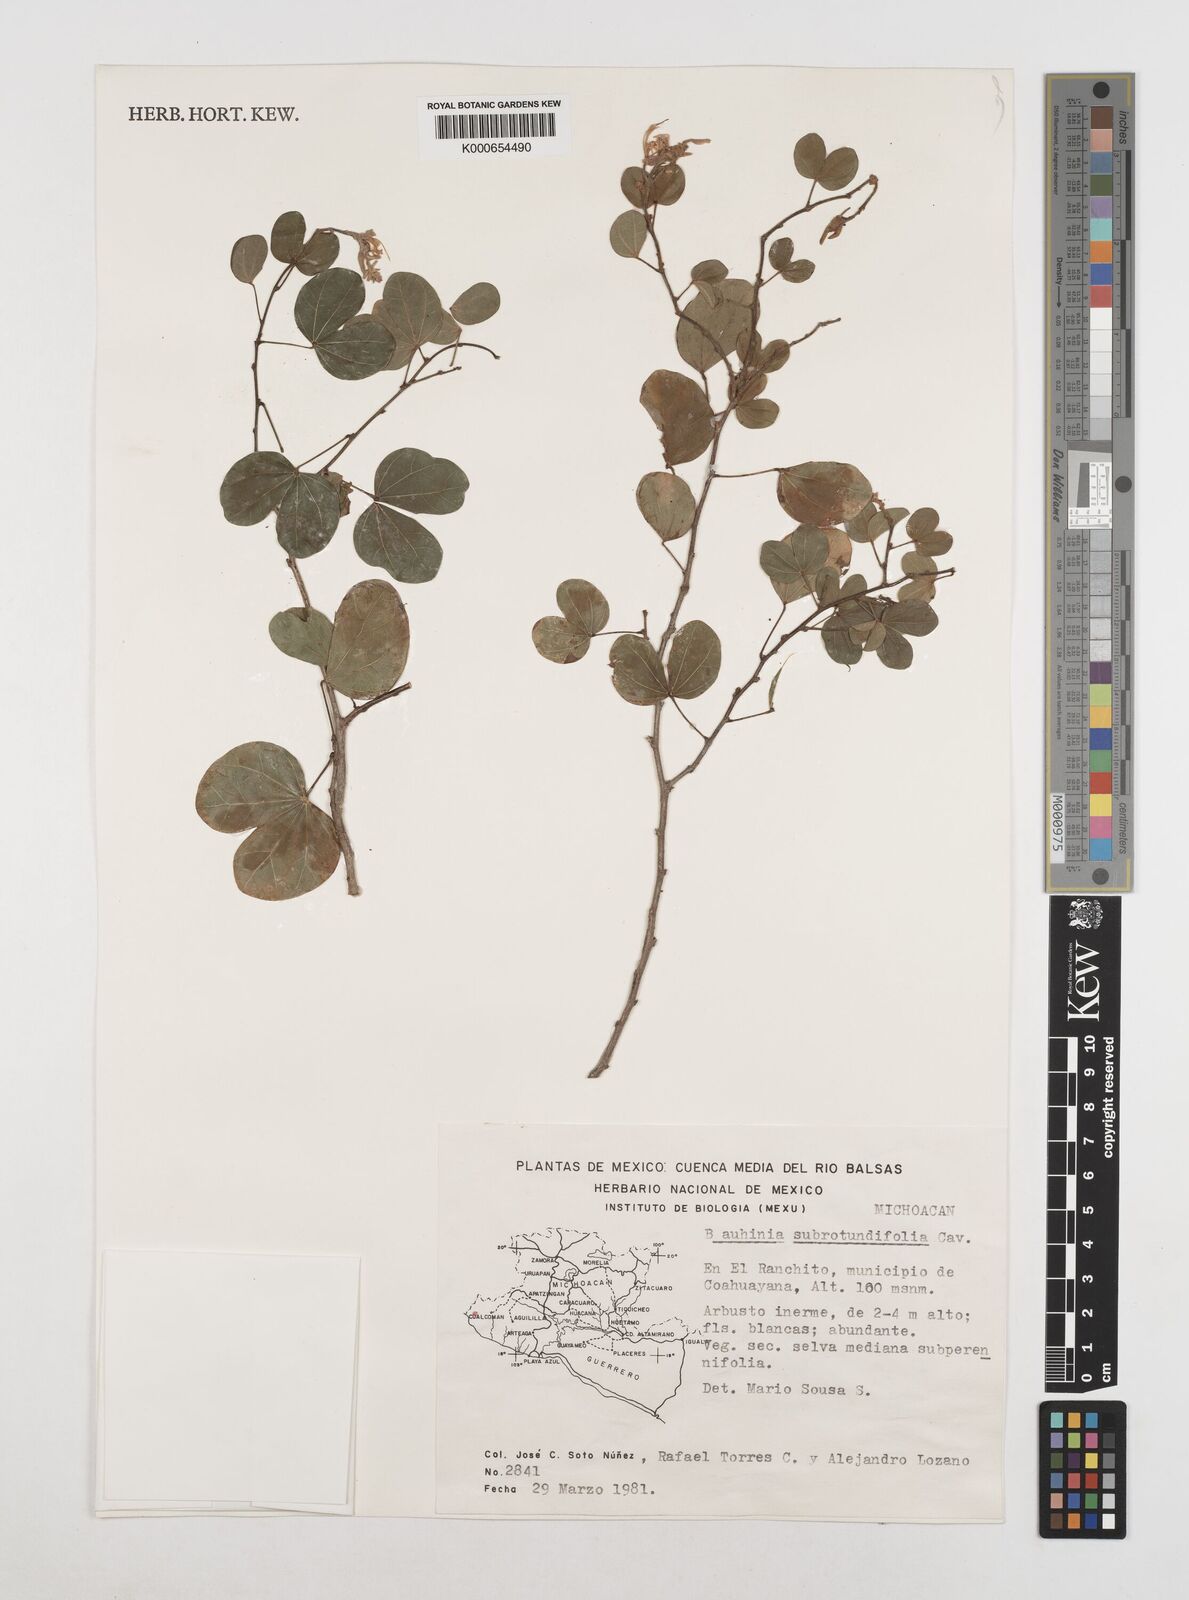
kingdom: Plantae
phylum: Tracheophyta
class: Magnoliopsida
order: Fabales
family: Fabaceae
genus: Bauhinia
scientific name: Bauhinia subrotundifolia
